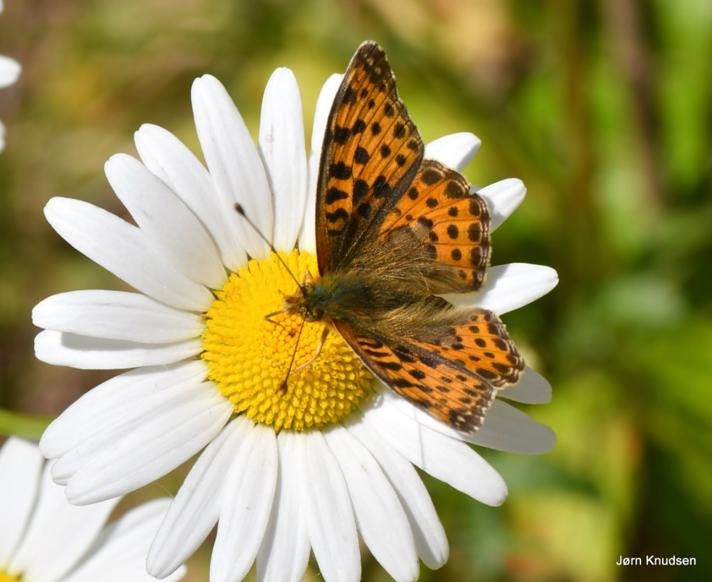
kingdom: Animalia
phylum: Arthropoda
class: Insecta
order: Lepidoptera
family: Nymphalidae
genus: Issoria
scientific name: Issoria lathonia
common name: Storplettet perlemorsommerfugl
